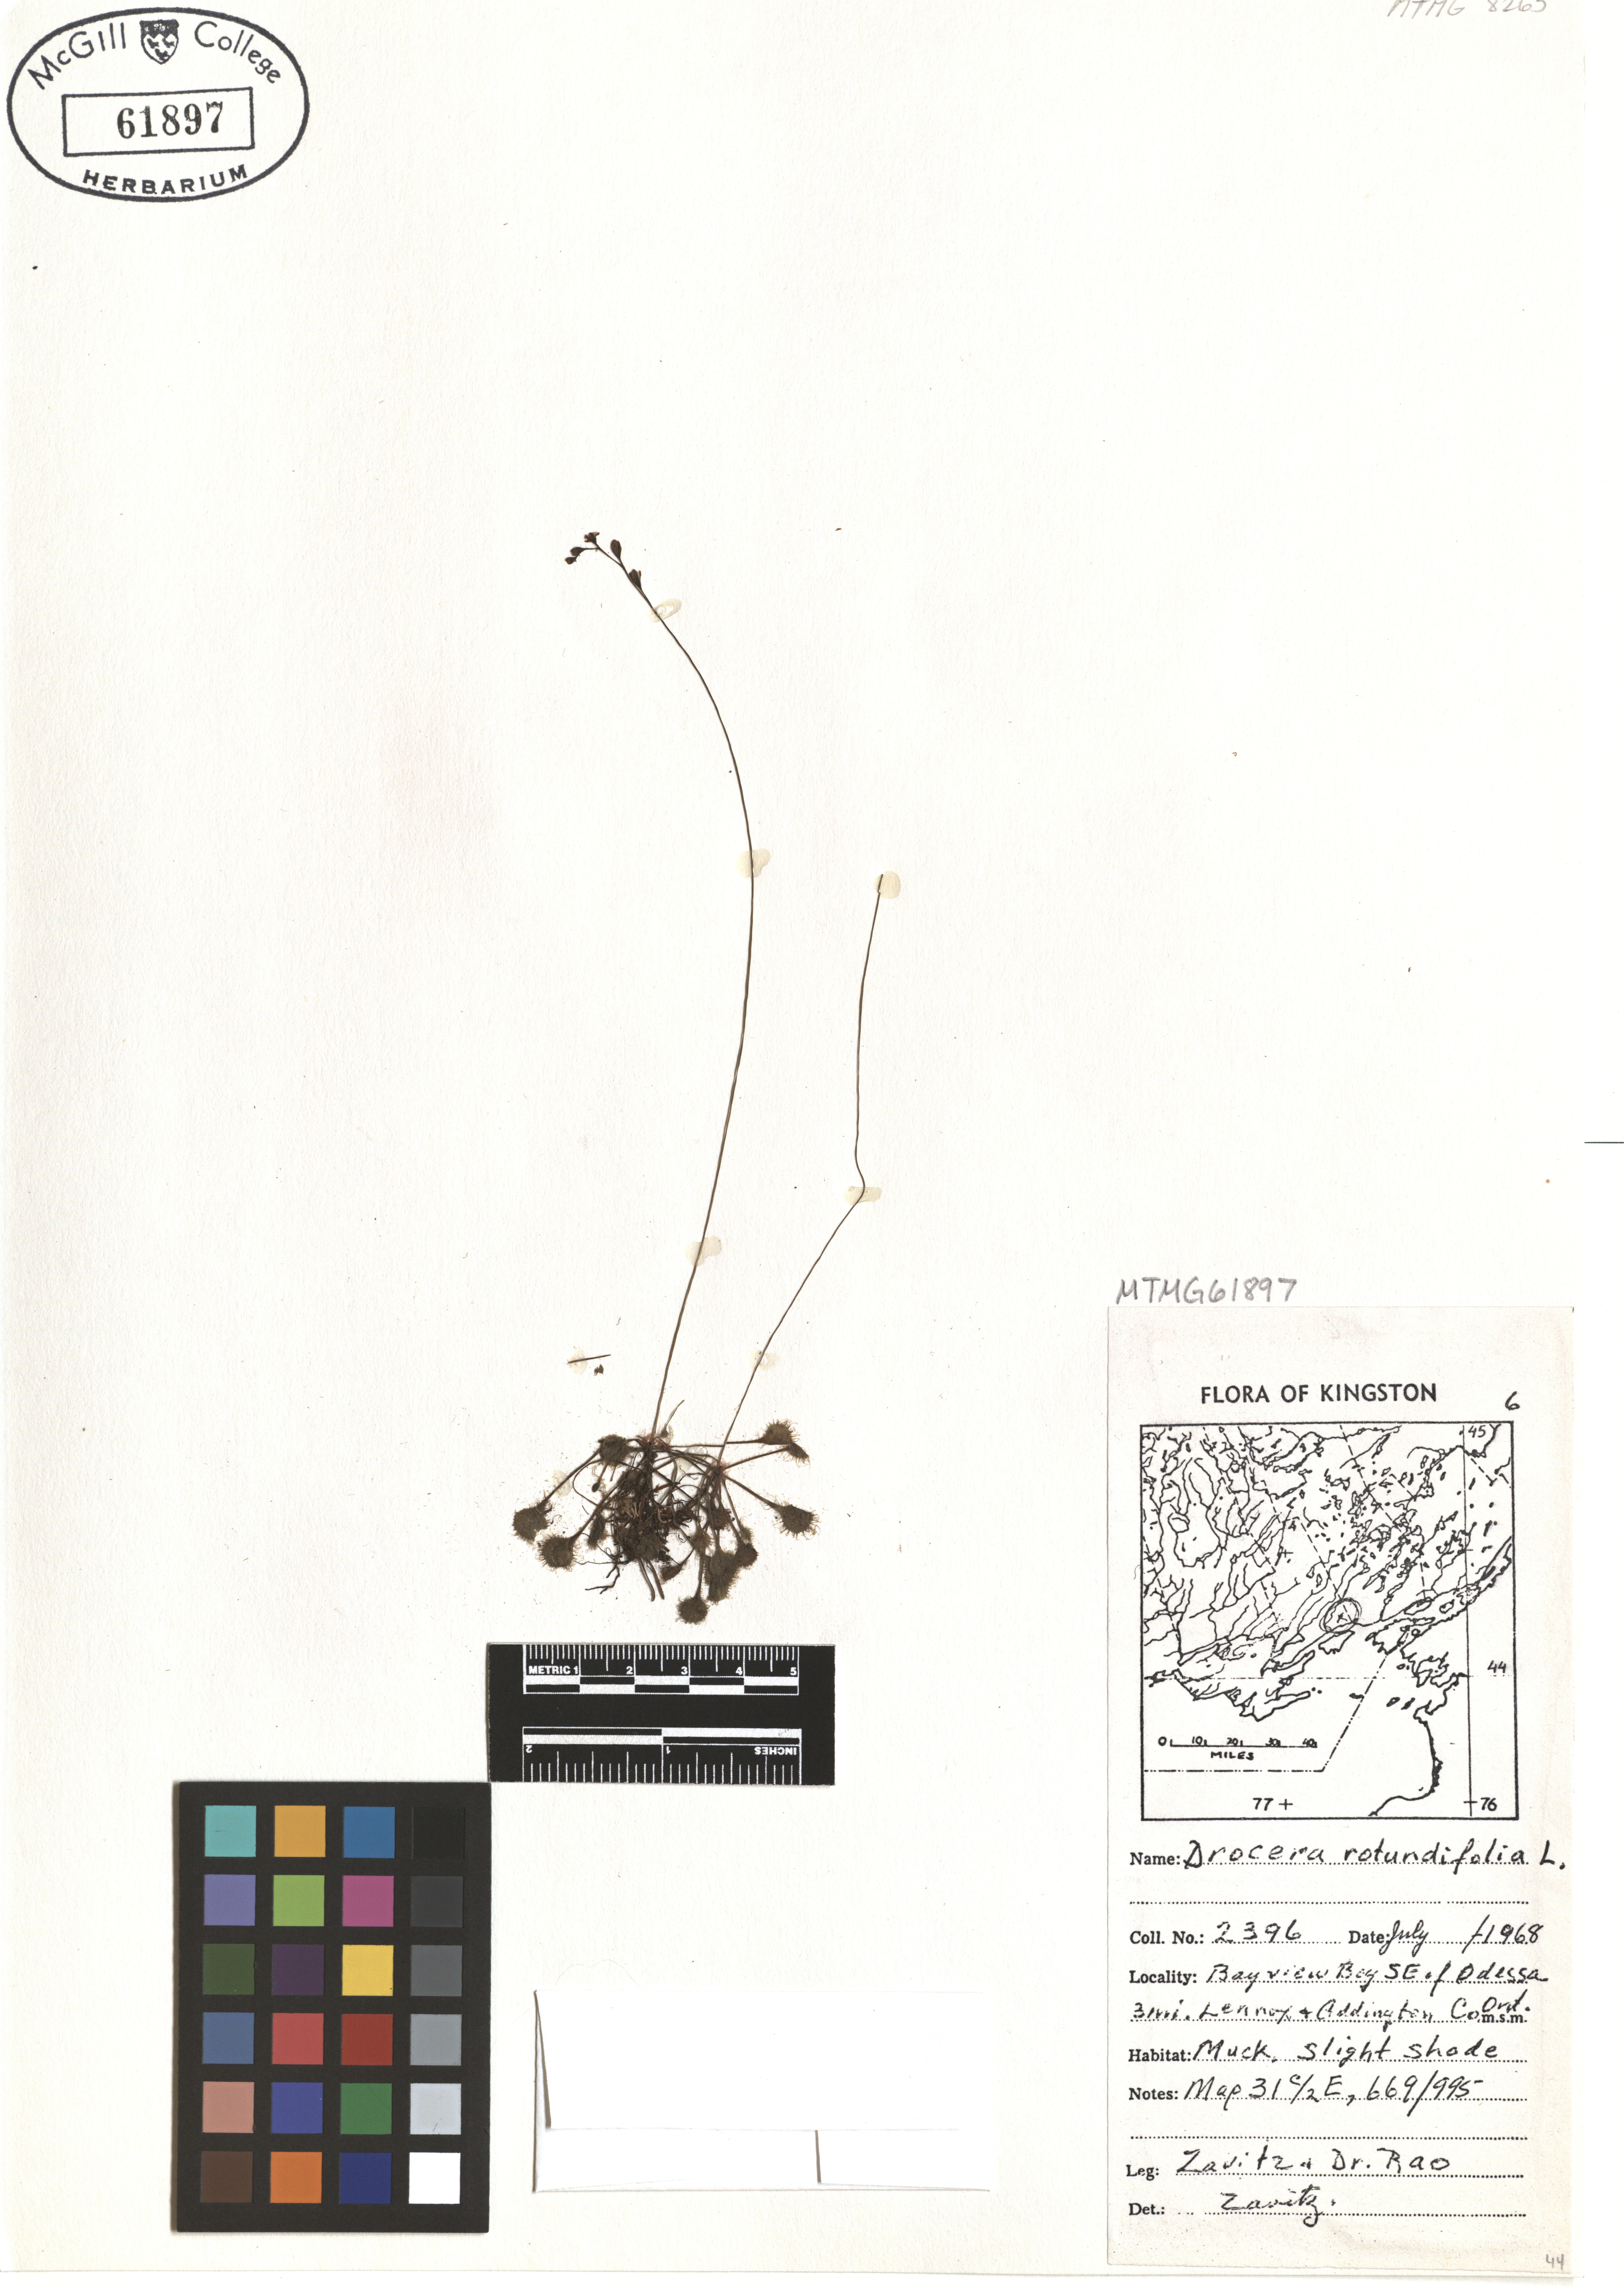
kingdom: Plantae
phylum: Tracheophyta
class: Magnoliopsida
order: Caryophyllales
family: Droseraceae
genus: Drosera
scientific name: Drosera rotundifolia
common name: Round-leaved sundew
